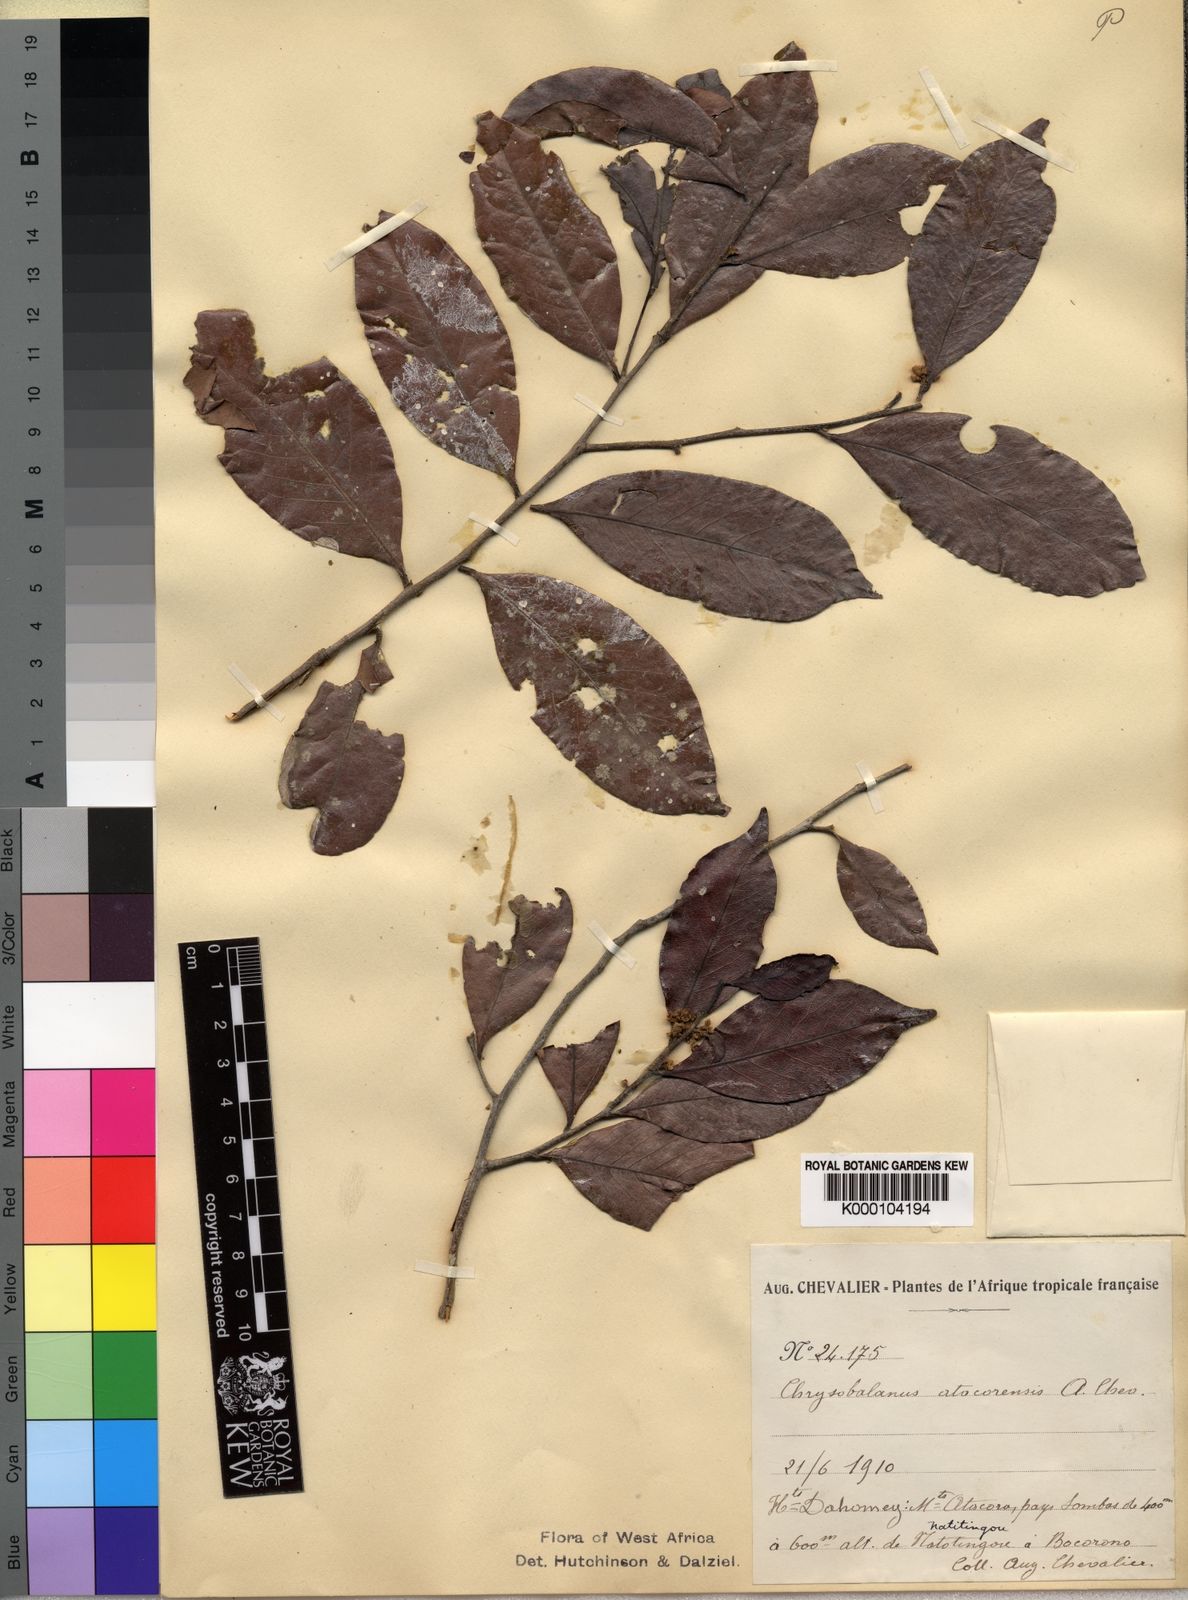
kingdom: Plantae
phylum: Tracheophyta
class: Magnoliopsida
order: Malpighiales
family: Chrysobalanaceae
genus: Chrysobalanus
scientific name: Chrysobalanus icaco
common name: Coco plum
